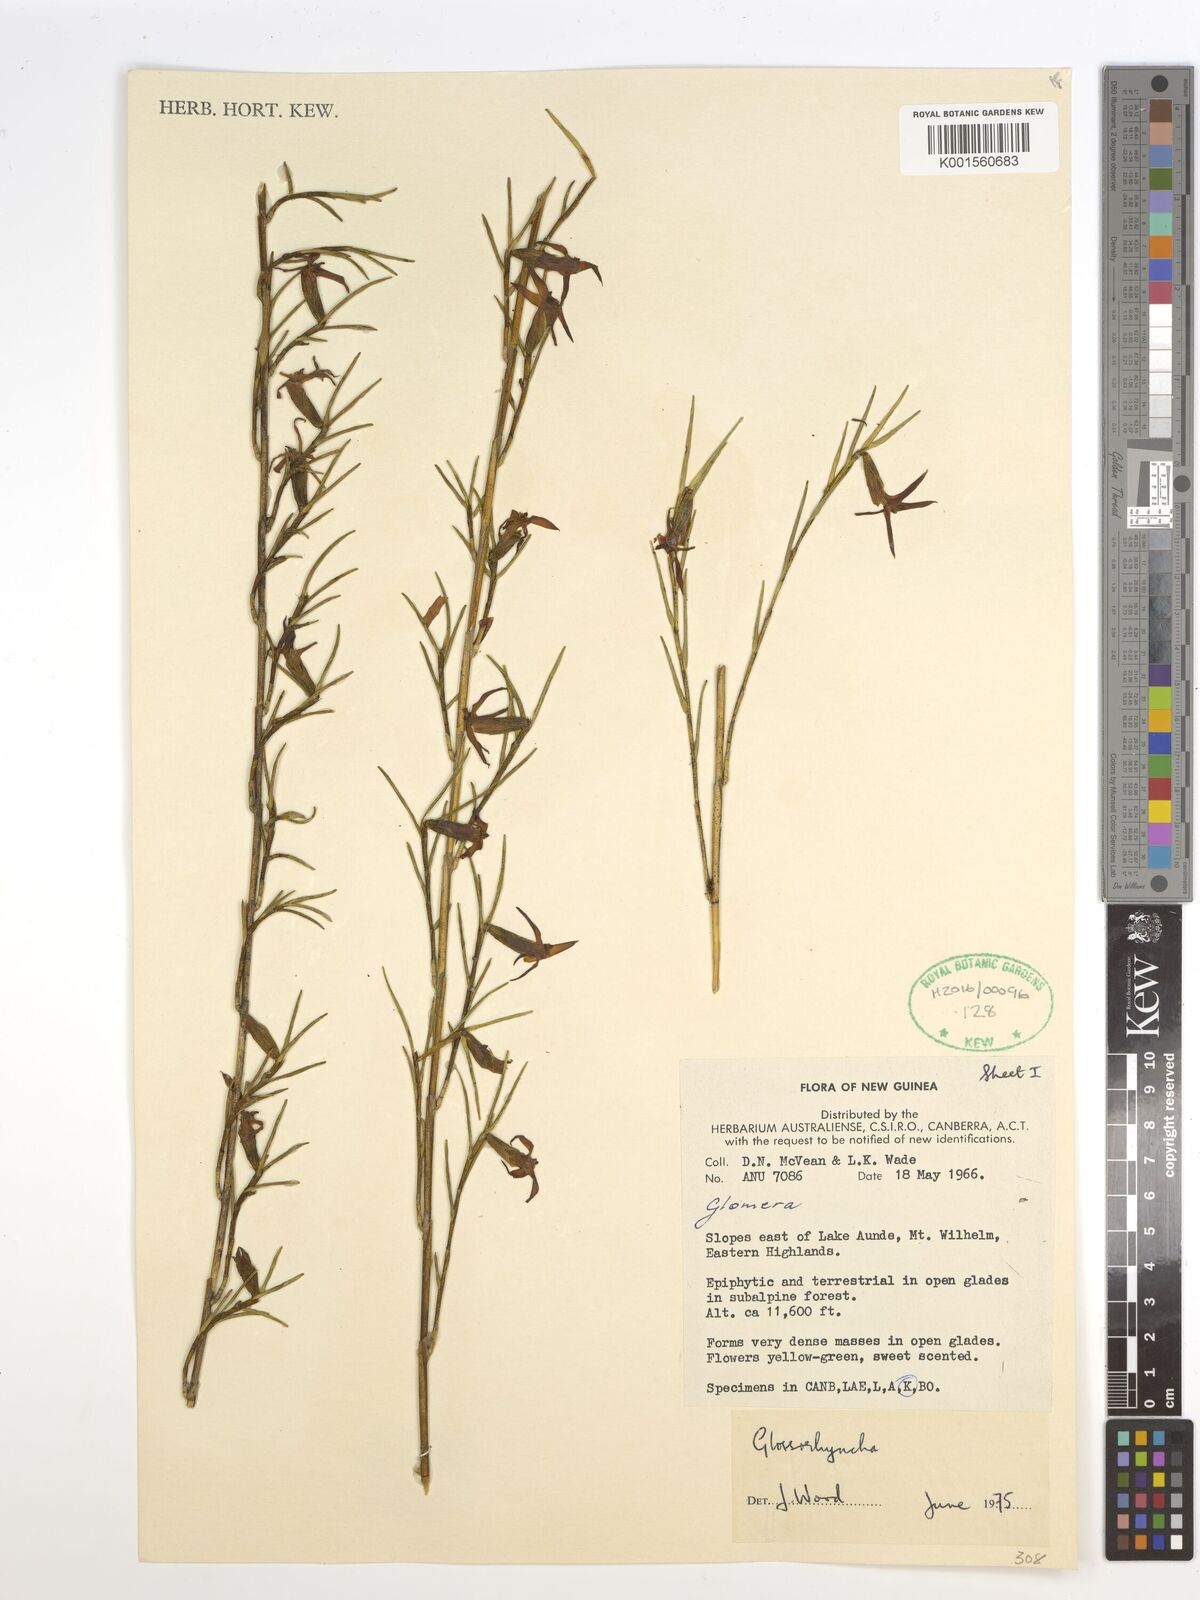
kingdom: Plantae
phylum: Tracheophyta
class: Liliopsida
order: Asparagales
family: Orchidaceae
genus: Glomera
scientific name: Glomera
